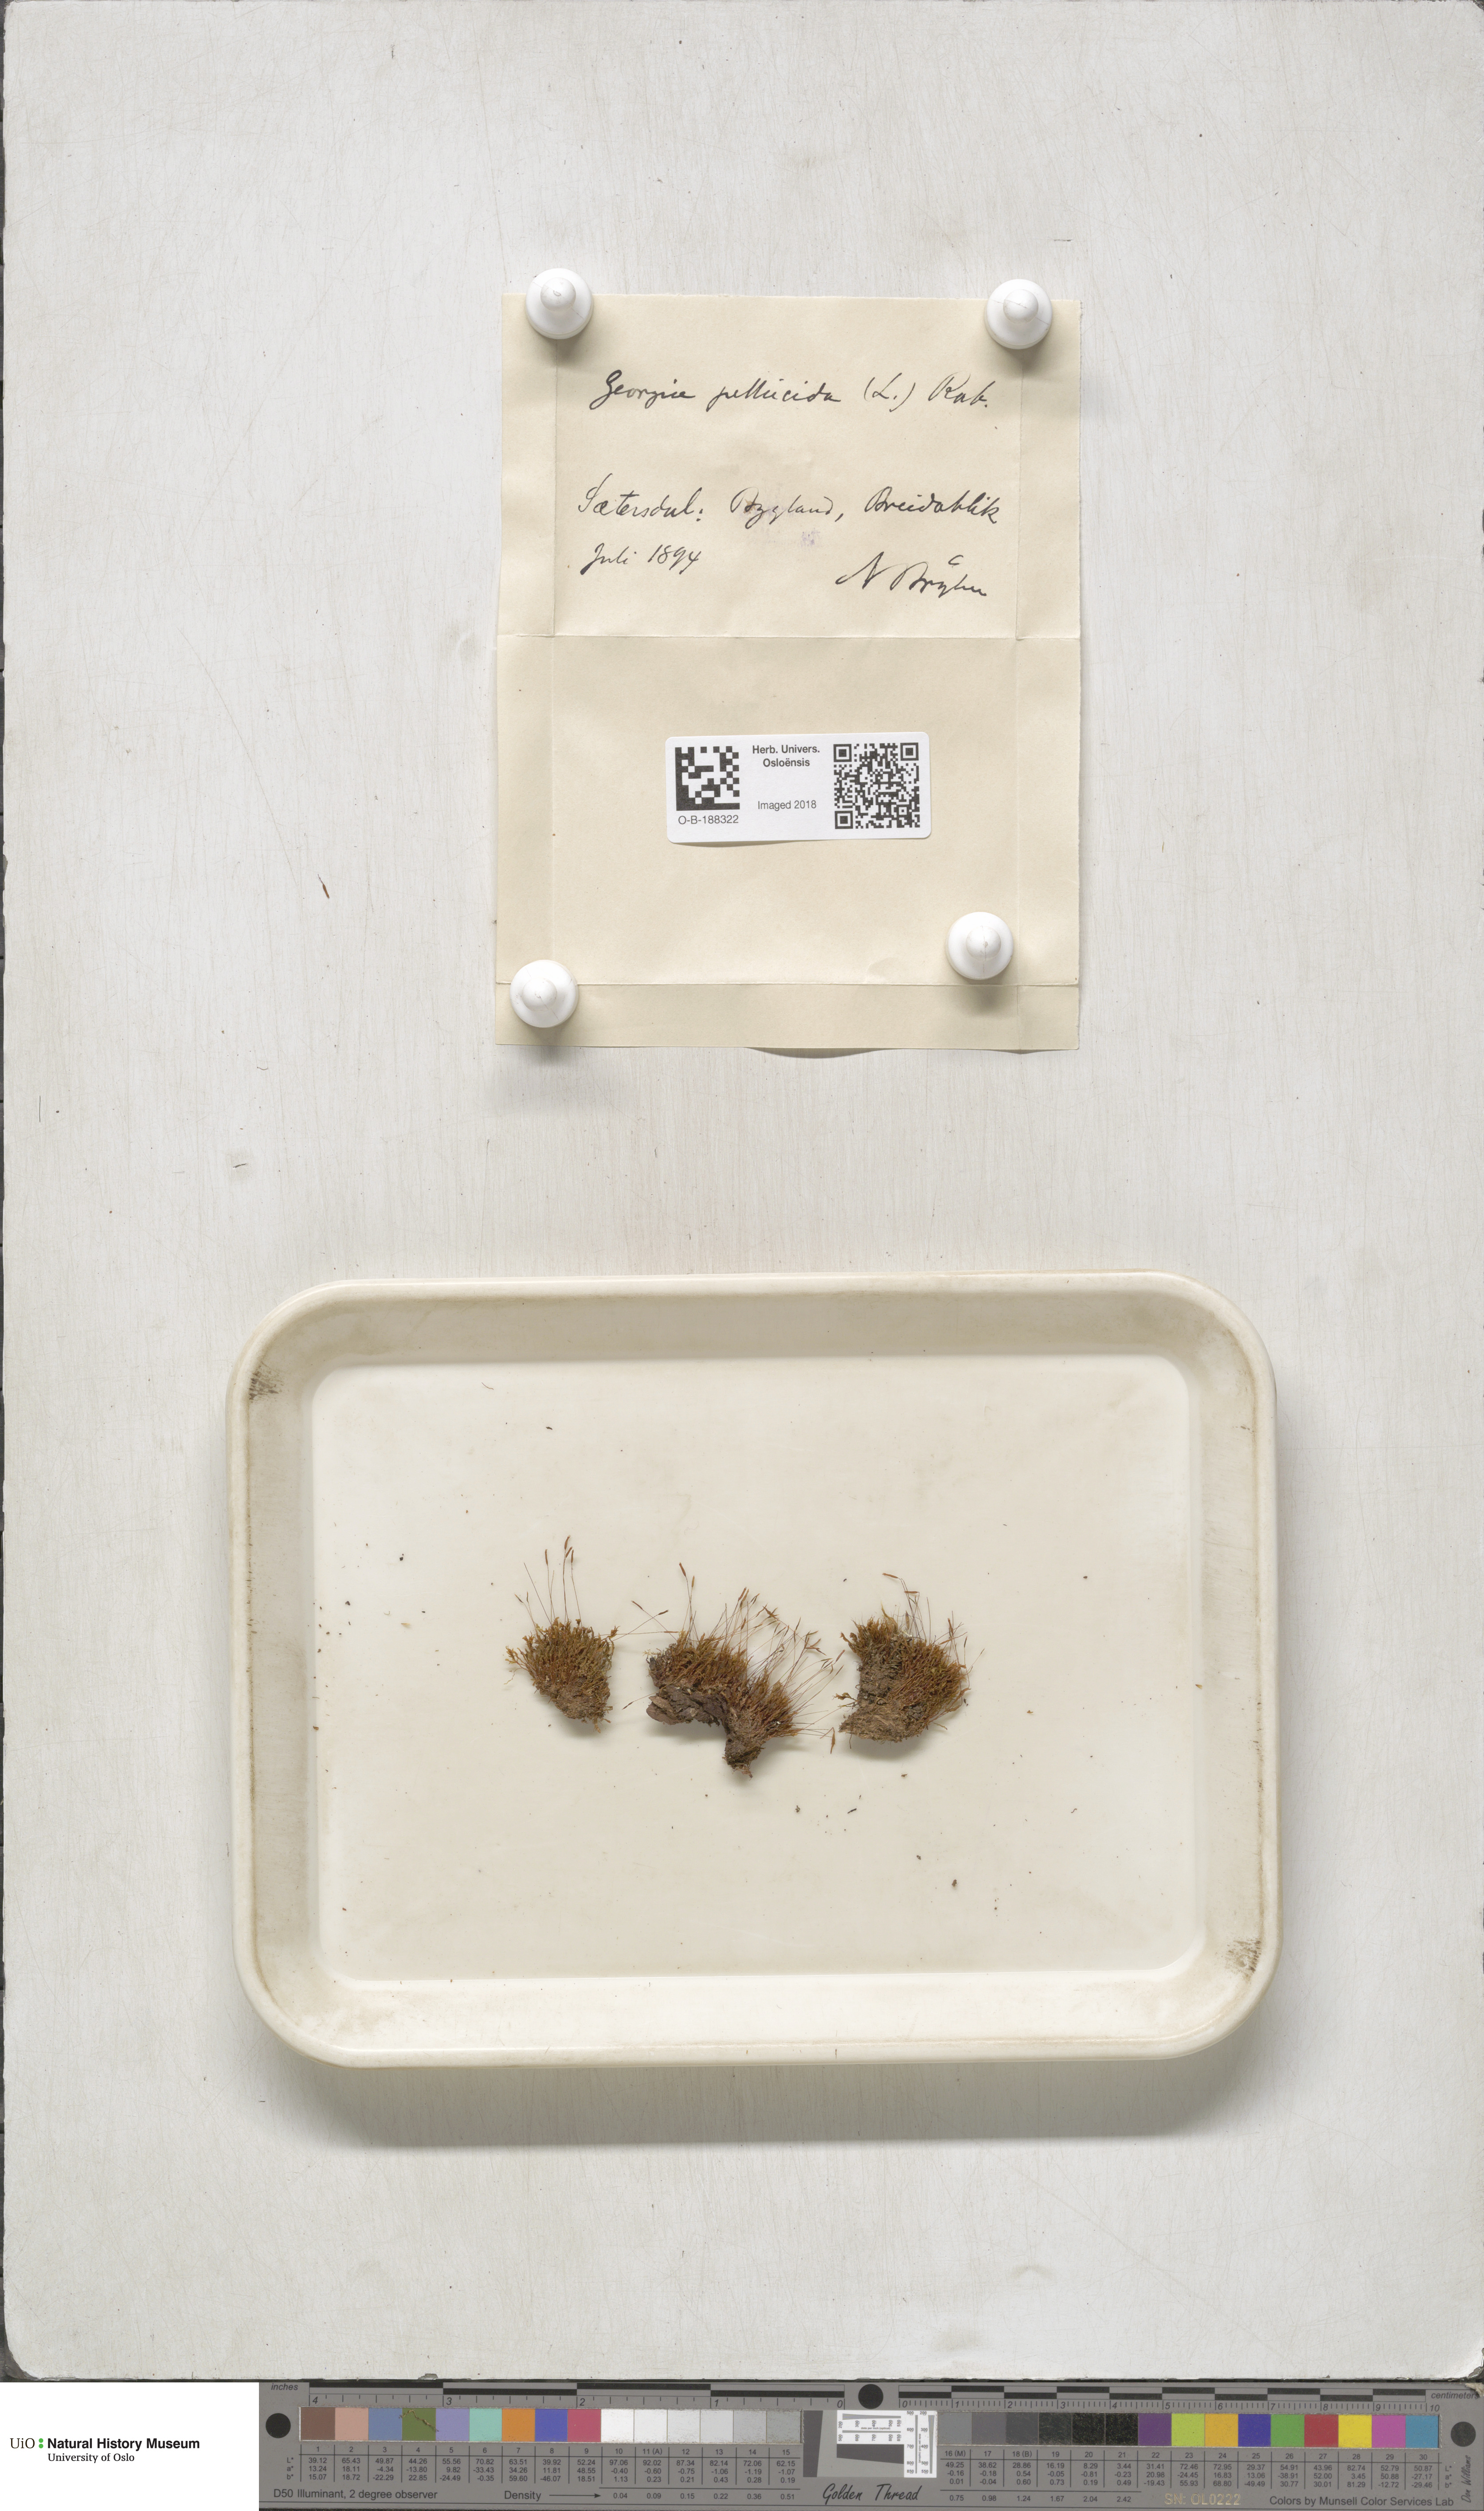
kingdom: Plantae
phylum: Bryophyta
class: Polytrichopsida
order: Tetraphidales
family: Tetraphidaceae
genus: Tetraphis
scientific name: Tetraphis pellucida
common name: Common four-toothed moss
